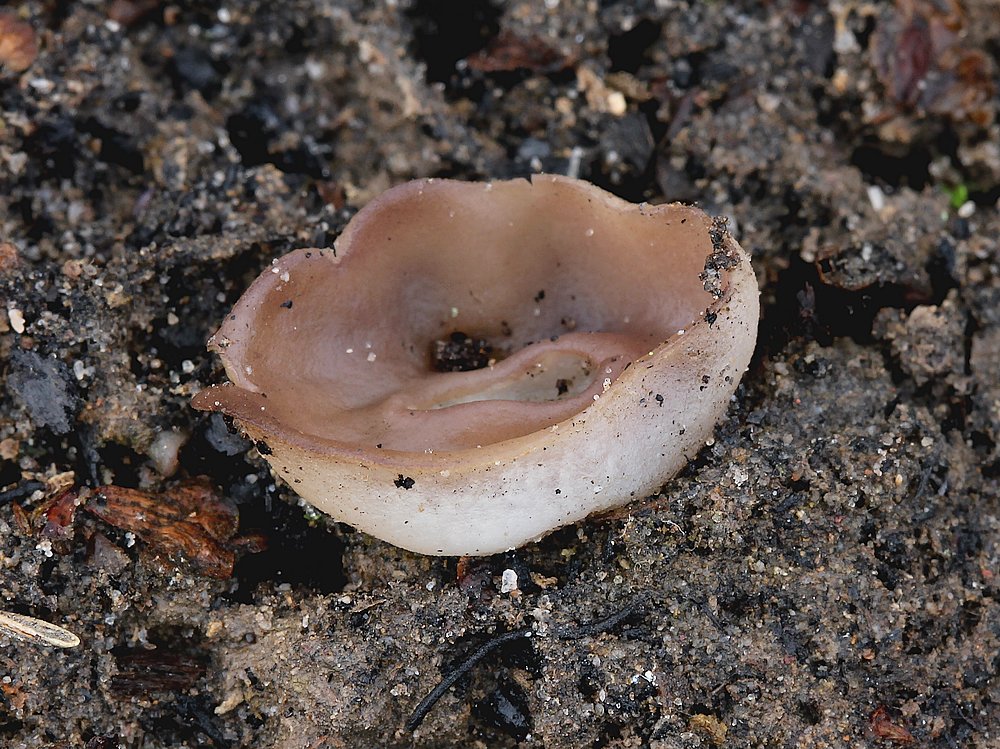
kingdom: Fungi
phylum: Ascomycota
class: Pezizomycetes
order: Pezizales
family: Pezizaceae
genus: Geoscypha
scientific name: Geoscypha tenacella
